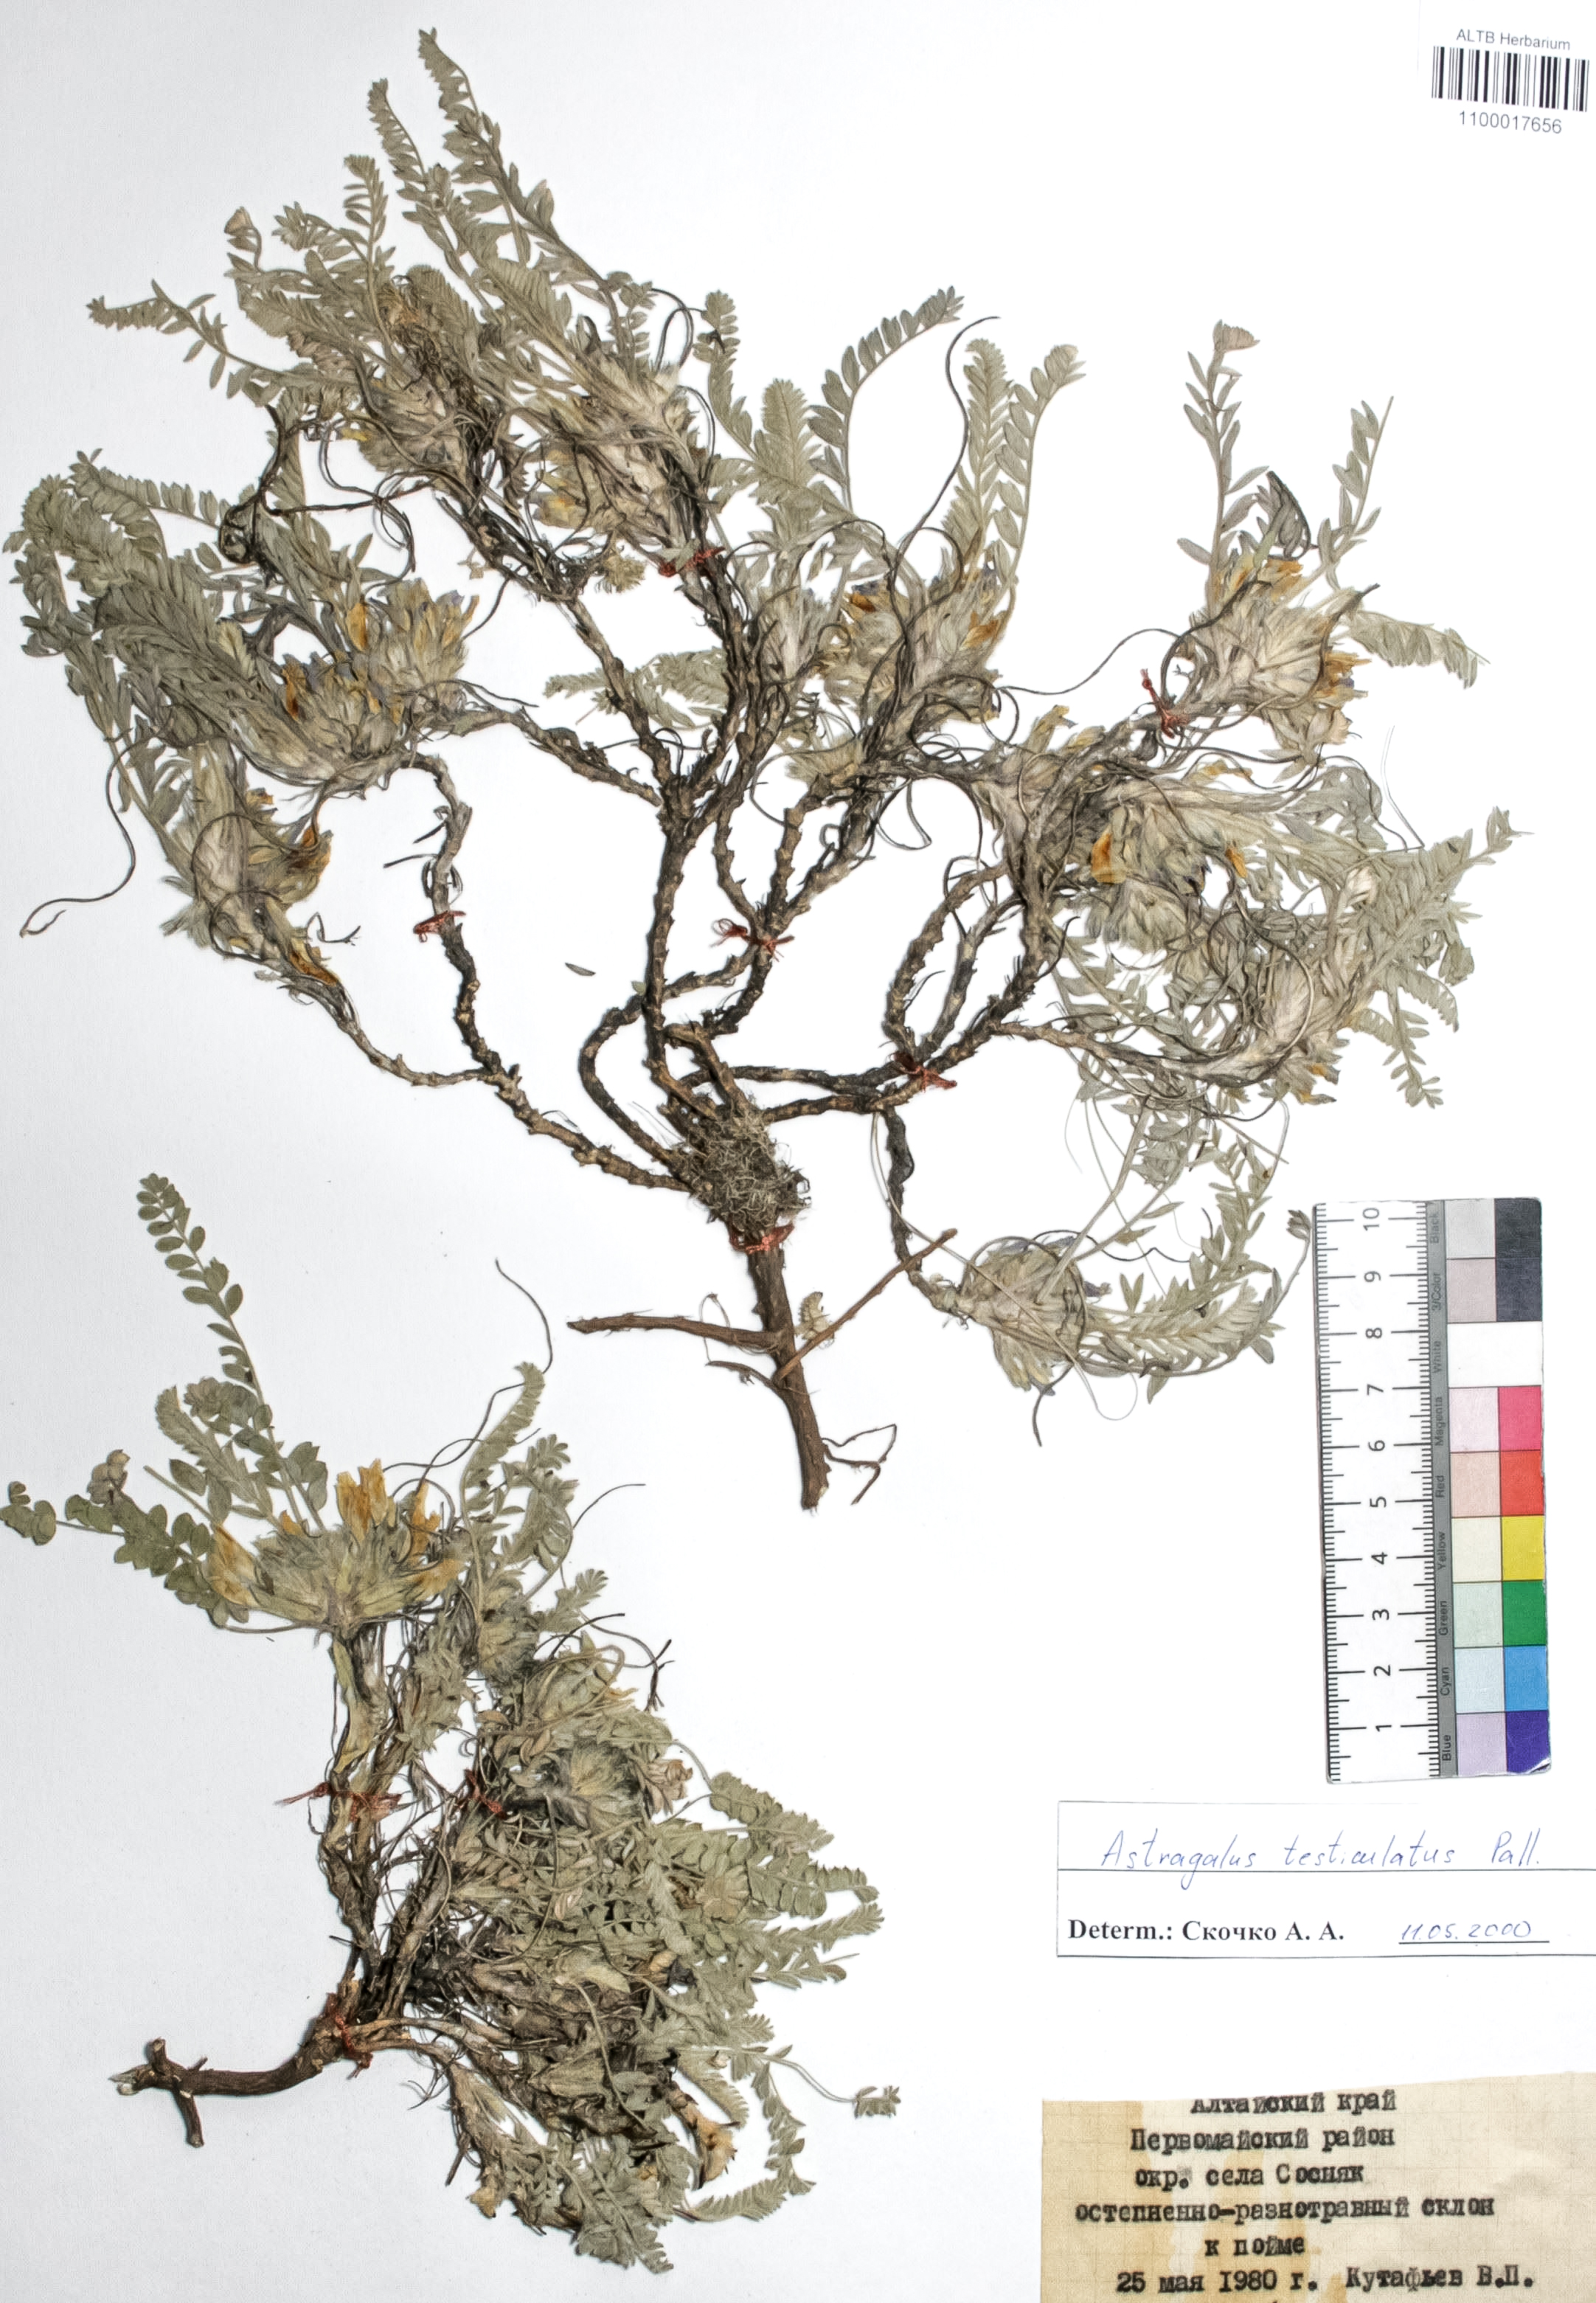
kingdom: Plantae
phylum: Tracheophyta
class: Magnoliopsida
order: Fabales
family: Fabaceae
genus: Astragalus
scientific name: Astragalus testiculatus
